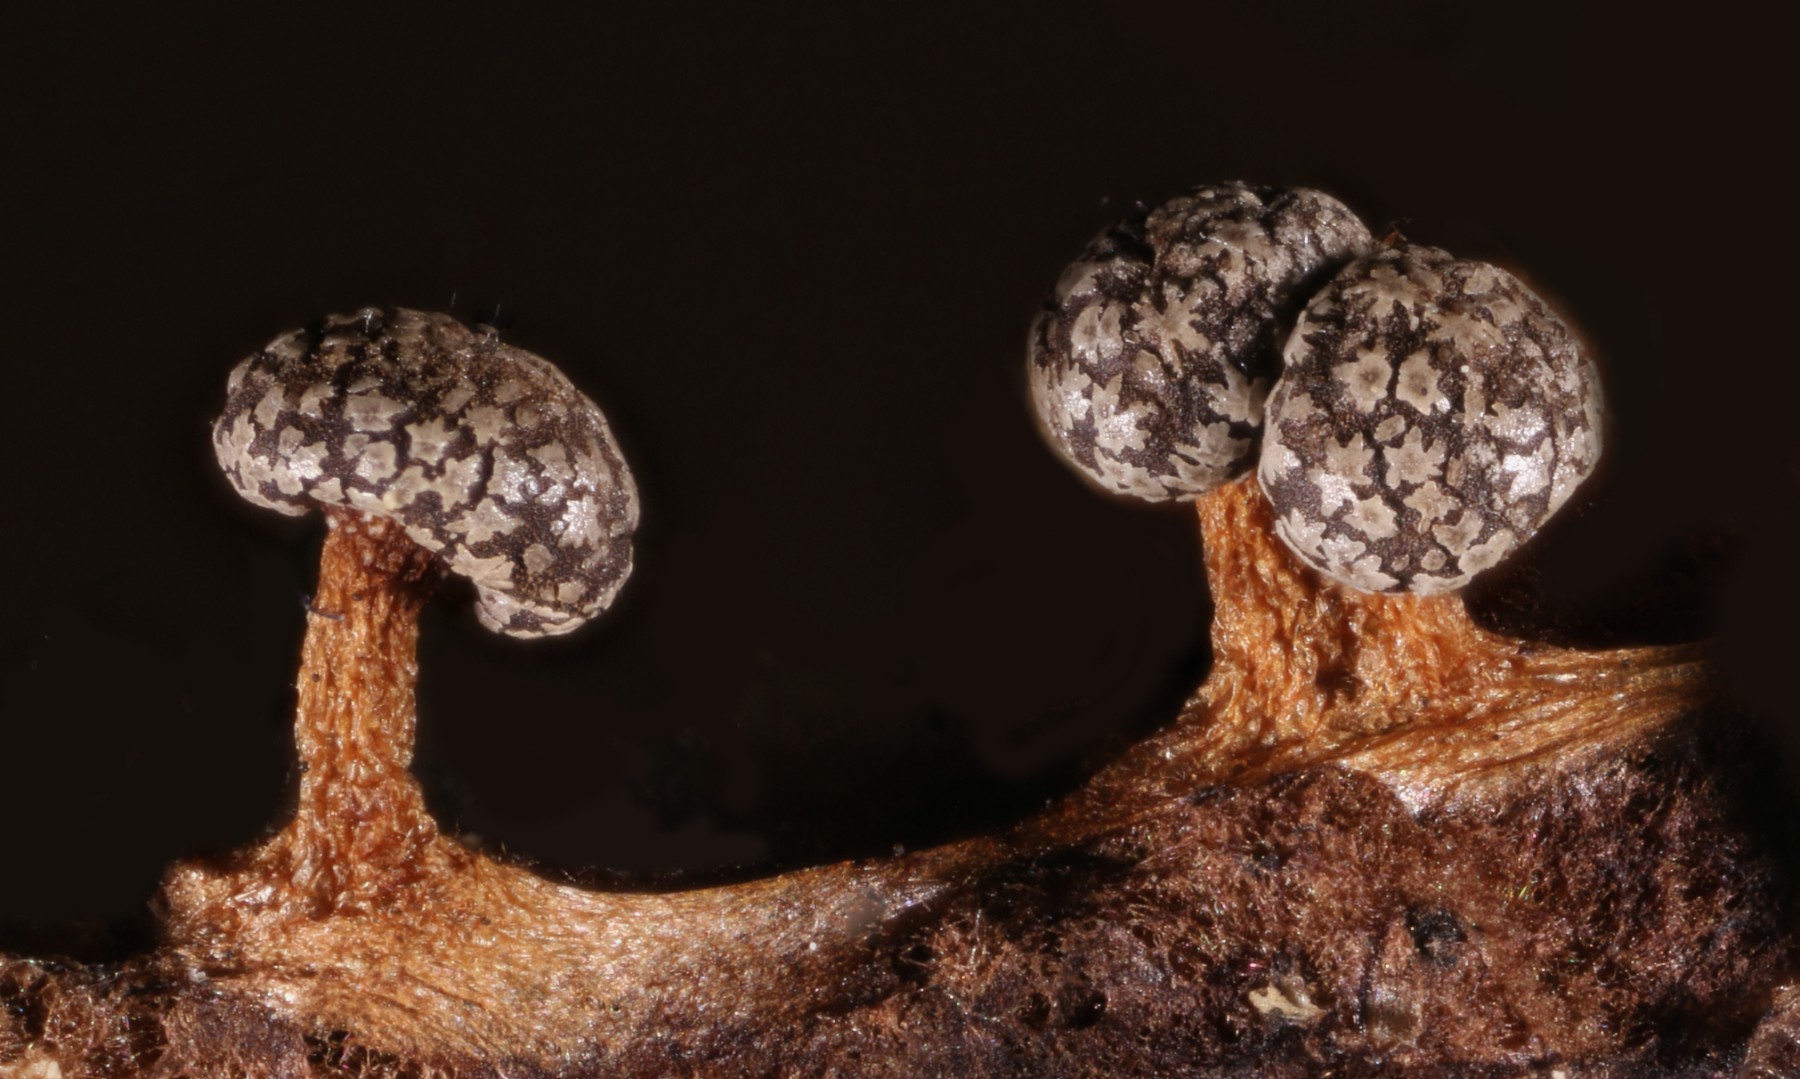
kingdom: Protozoa
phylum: Mycetozoa
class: Myxomycetes
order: Physarales
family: Didymiaceae
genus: Lepidoderma
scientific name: Lepidoderma tigrinum
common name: Lepidoderma crassipes
